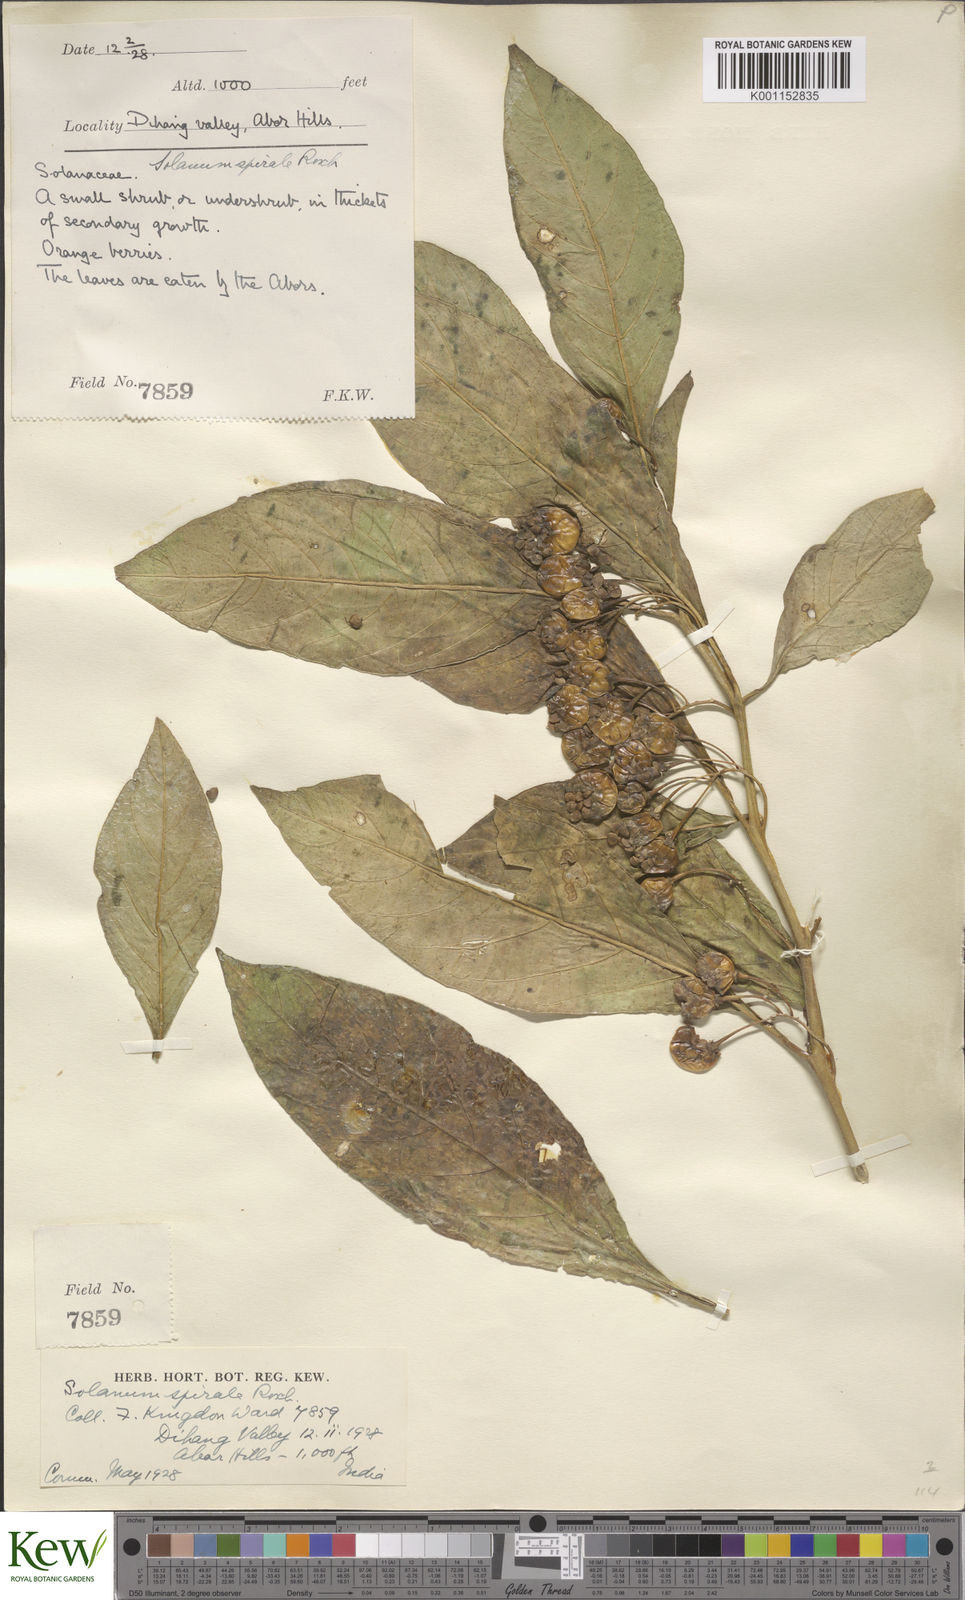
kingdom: Plantae
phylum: Tracheophyta
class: Magnoliopsida
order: Solanales
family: Solanaceae
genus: Solanum
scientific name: Solanum spirale
